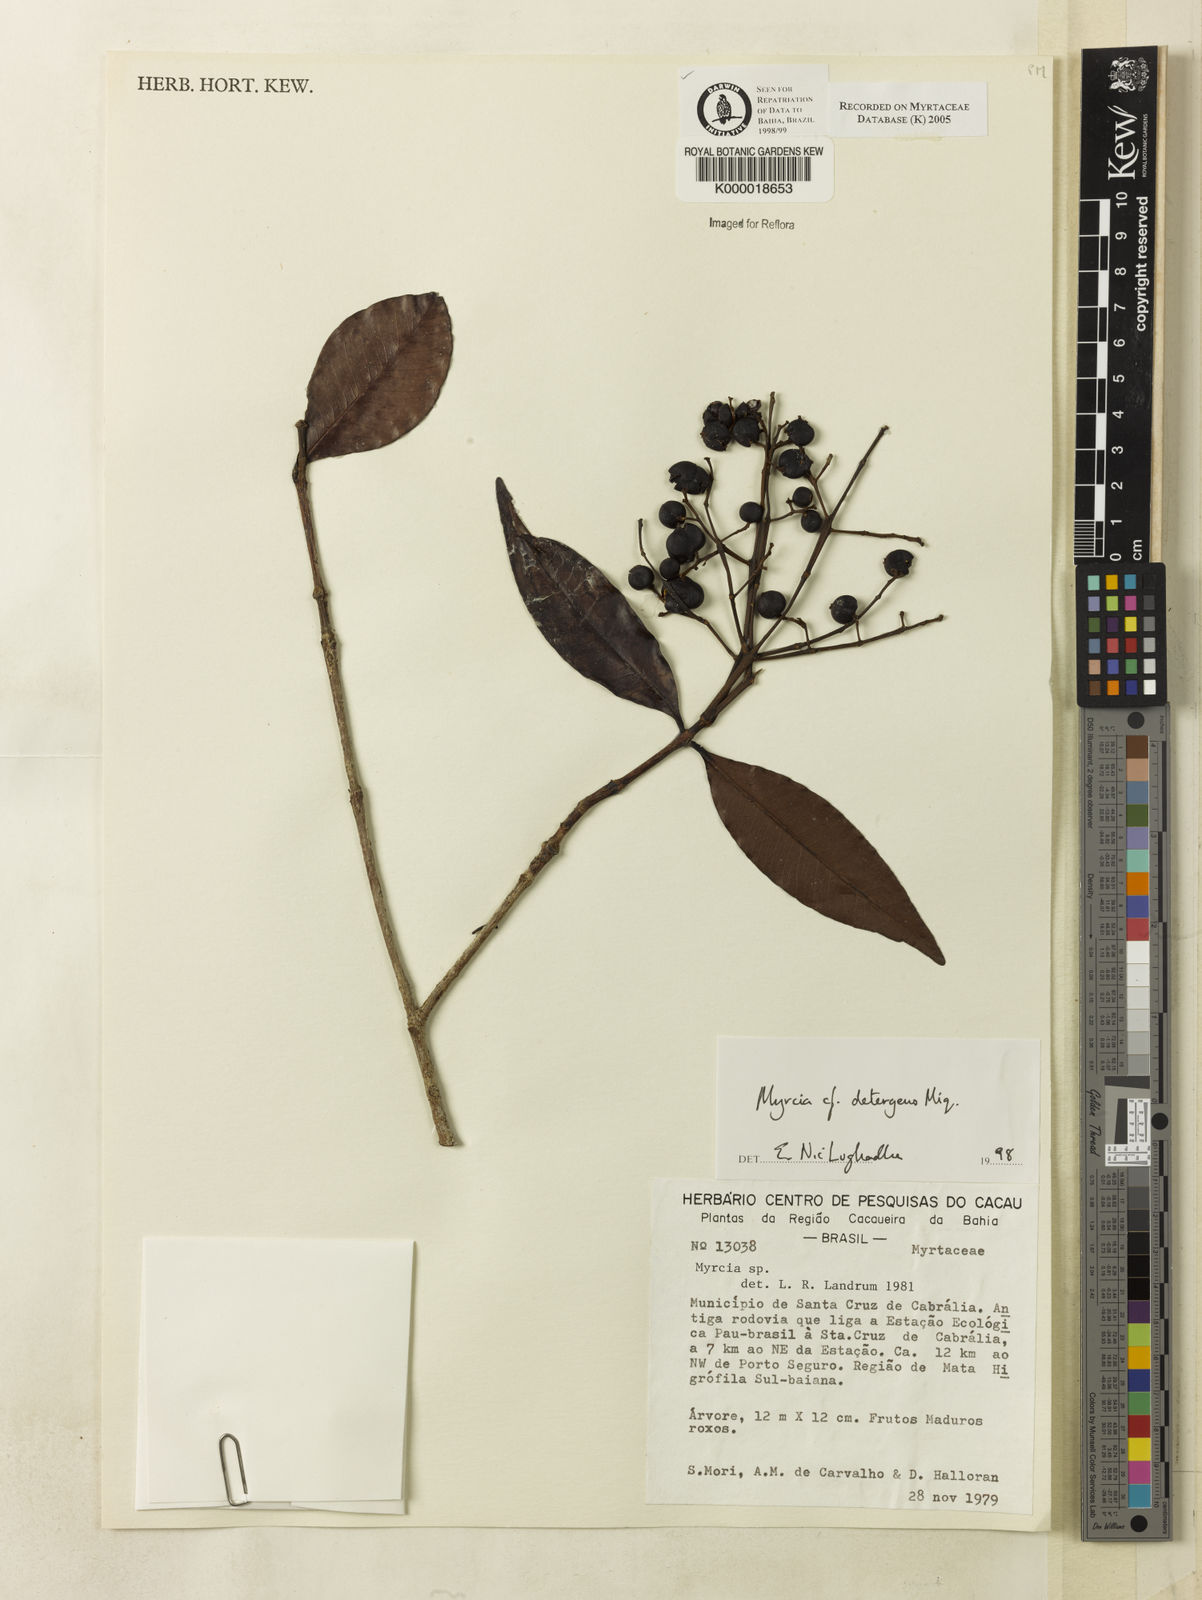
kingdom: Plantae
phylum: Tracheophyta
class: Magnoliopsida
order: Myrtales
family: Myrtaceae
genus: Myrcia
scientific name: Myrcia amazonica
